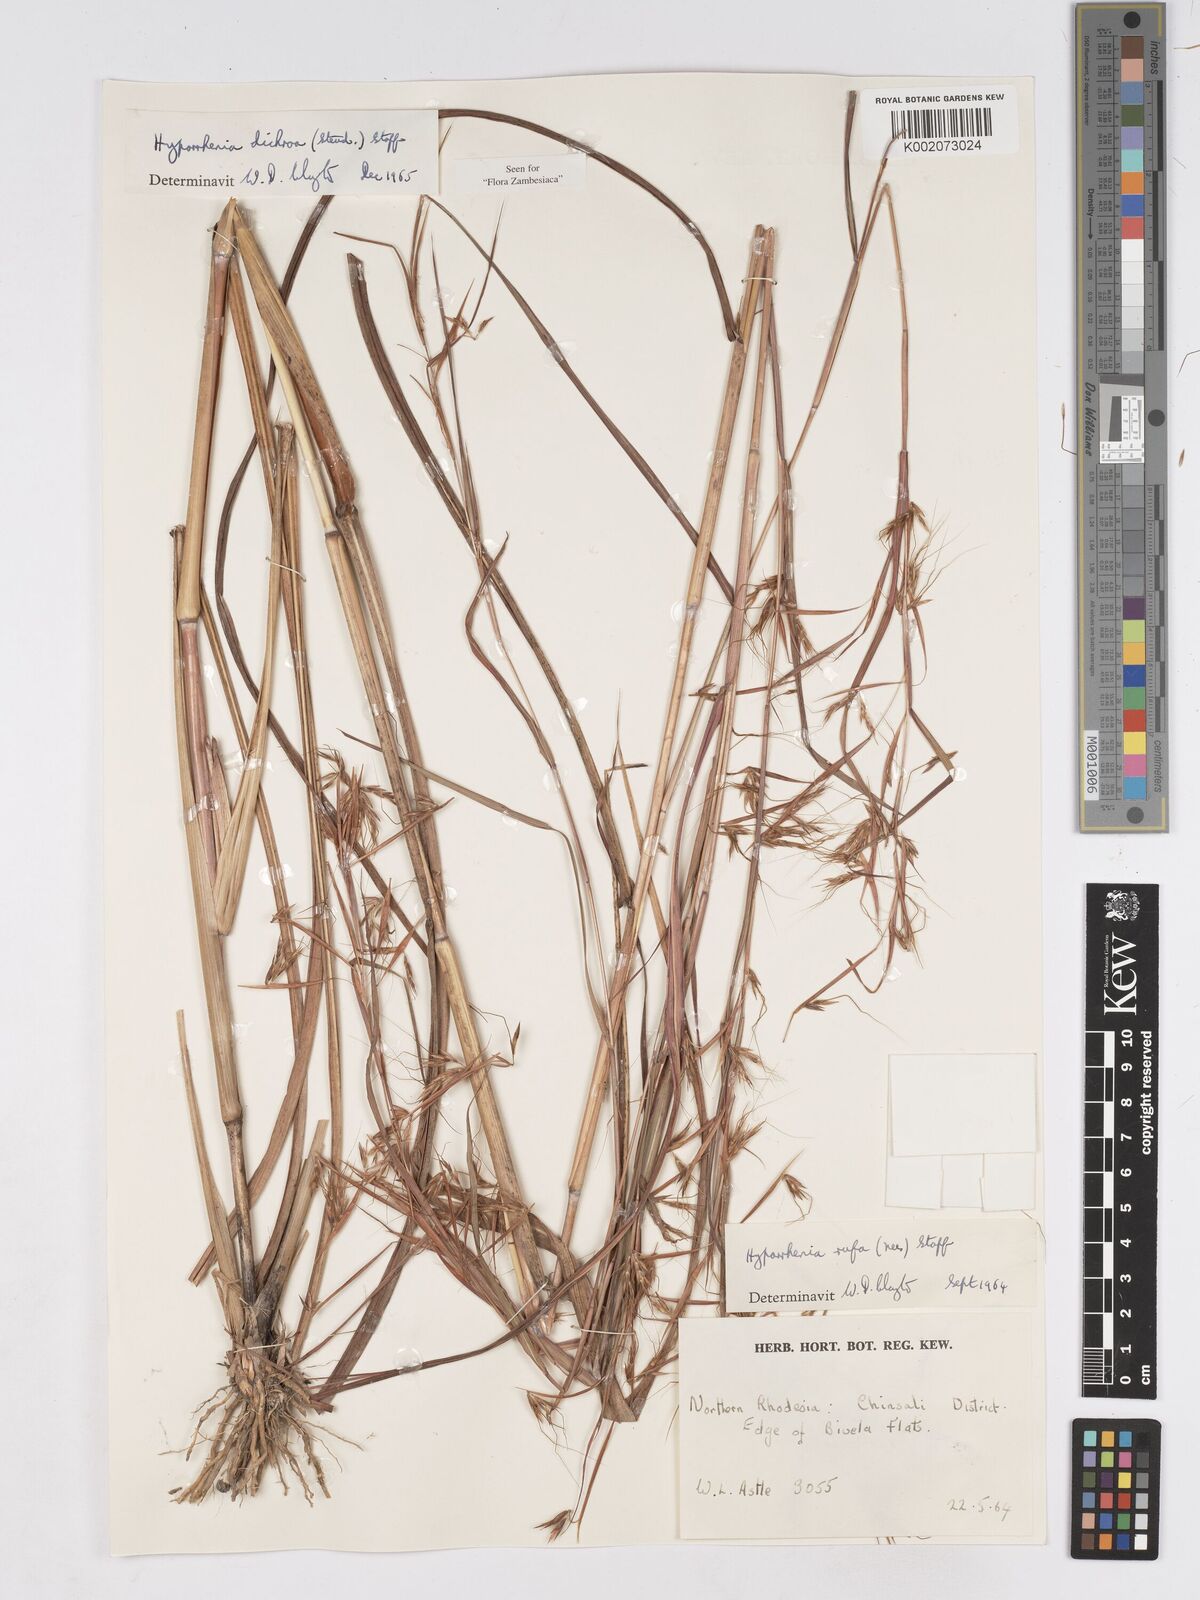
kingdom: Plantae
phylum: Tracheophyta
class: Liliopsida
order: Poales
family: Poaceae
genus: Hyparrhenia
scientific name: Hyparrhenia dichroa
